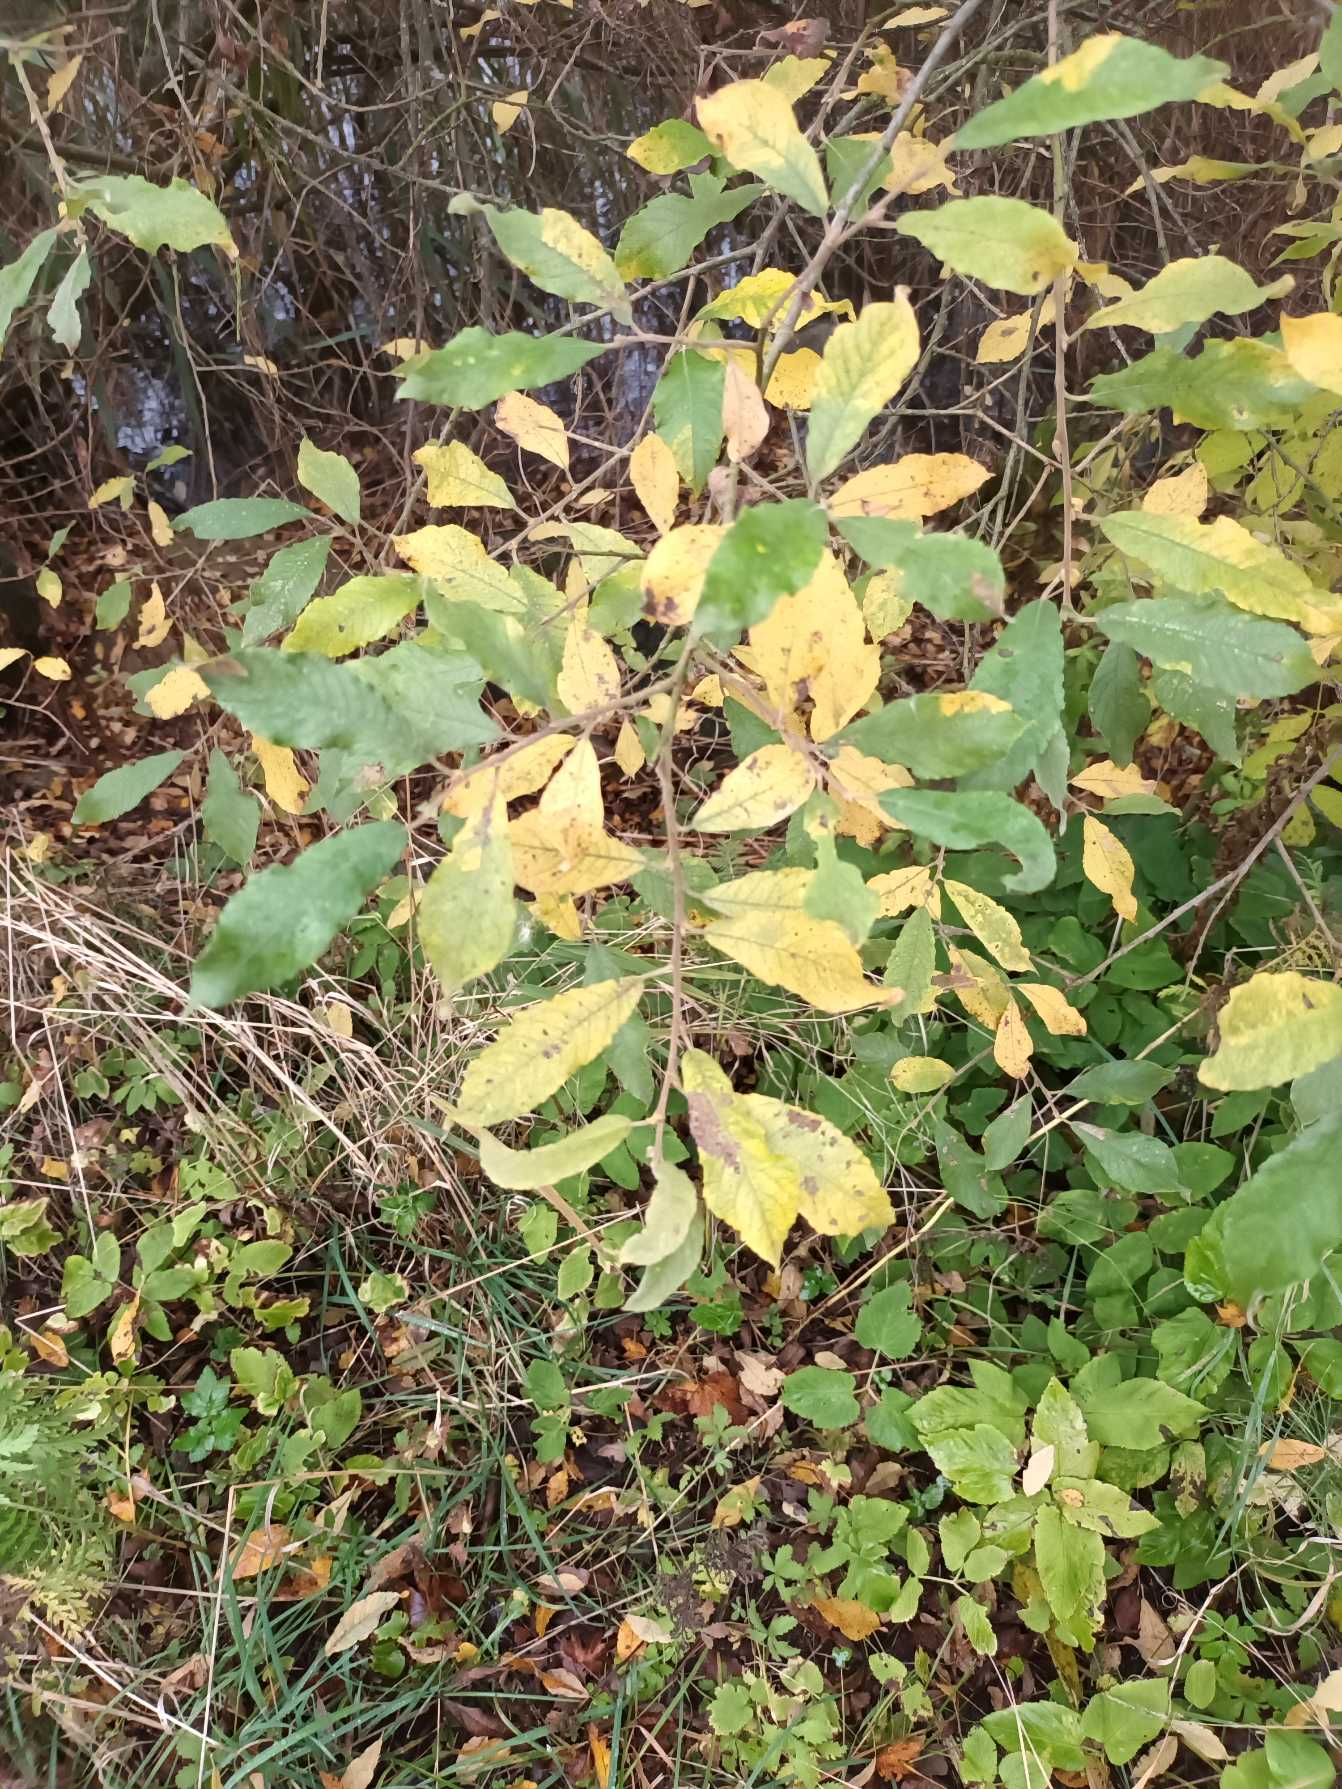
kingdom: Plantae
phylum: Tracheophyta
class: Magnoliopsida
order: Malpighiales
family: Salicaceae
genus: Salix
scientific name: Salix cinerea
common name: Grå-pil
